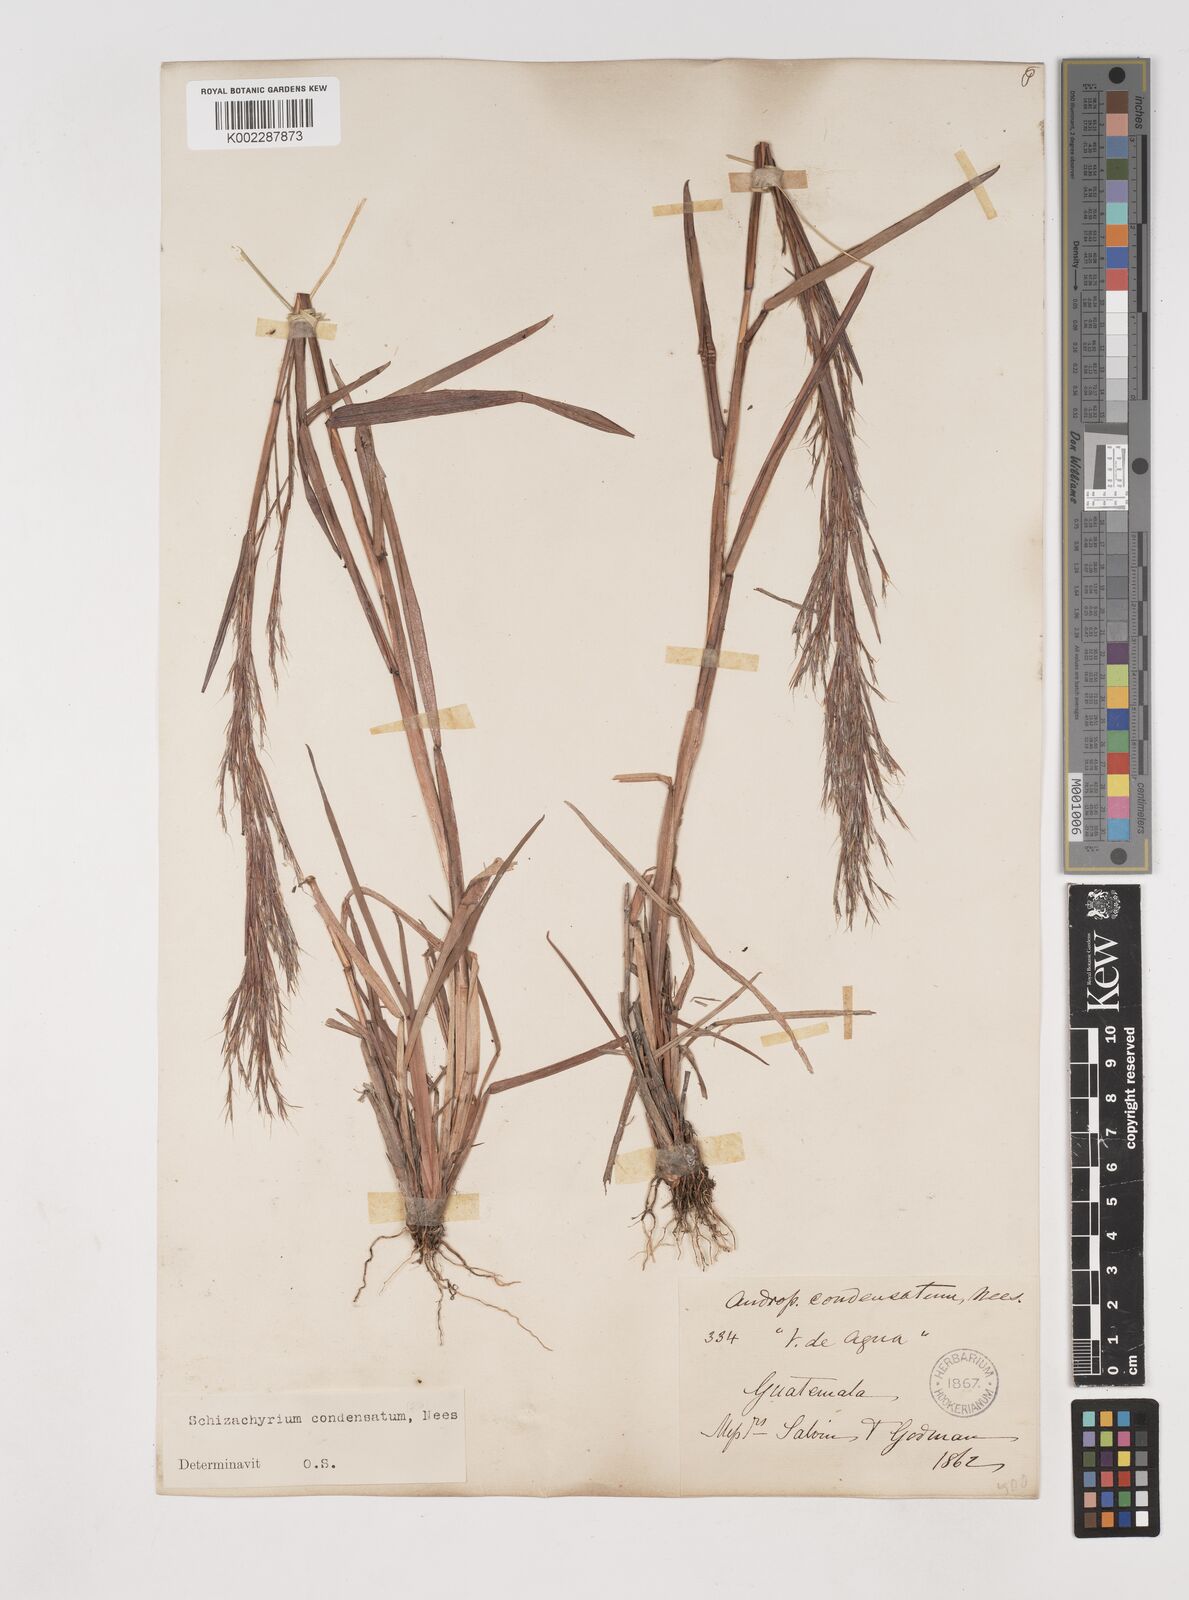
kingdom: Plantae
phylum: Tracheophyta
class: Liliopsida
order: Poales
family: Poaceae
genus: Schizachyrium
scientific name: Schizachyrium condensatum
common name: Bush beardgrass
